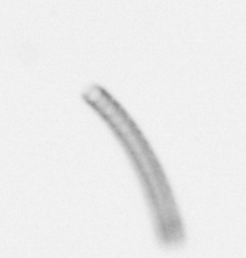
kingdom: Chromista
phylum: Ochrophyta
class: Bacillariophyceae
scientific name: Bacillariophyceae
